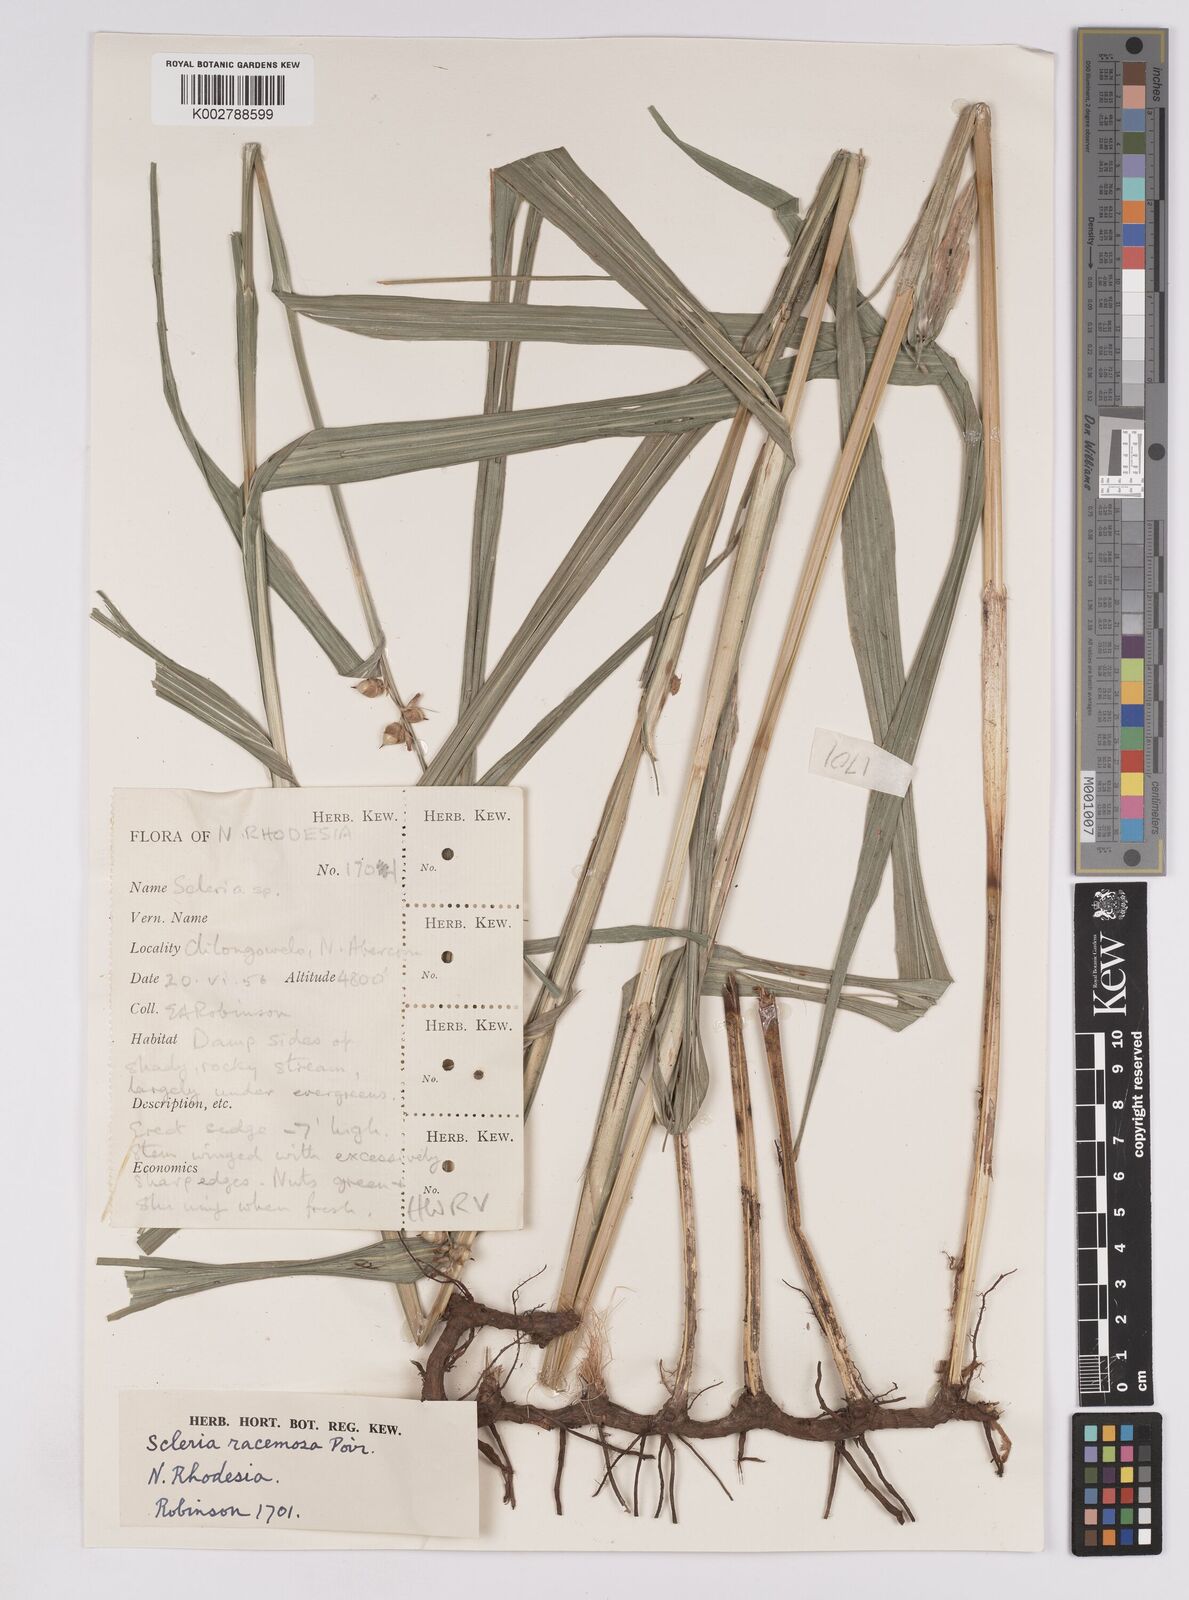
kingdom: Plantae
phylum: Tracheophyta
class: Liliopsida
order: Poales
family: Cyperaceae
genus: Scleria
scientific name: Scleria racemosa
